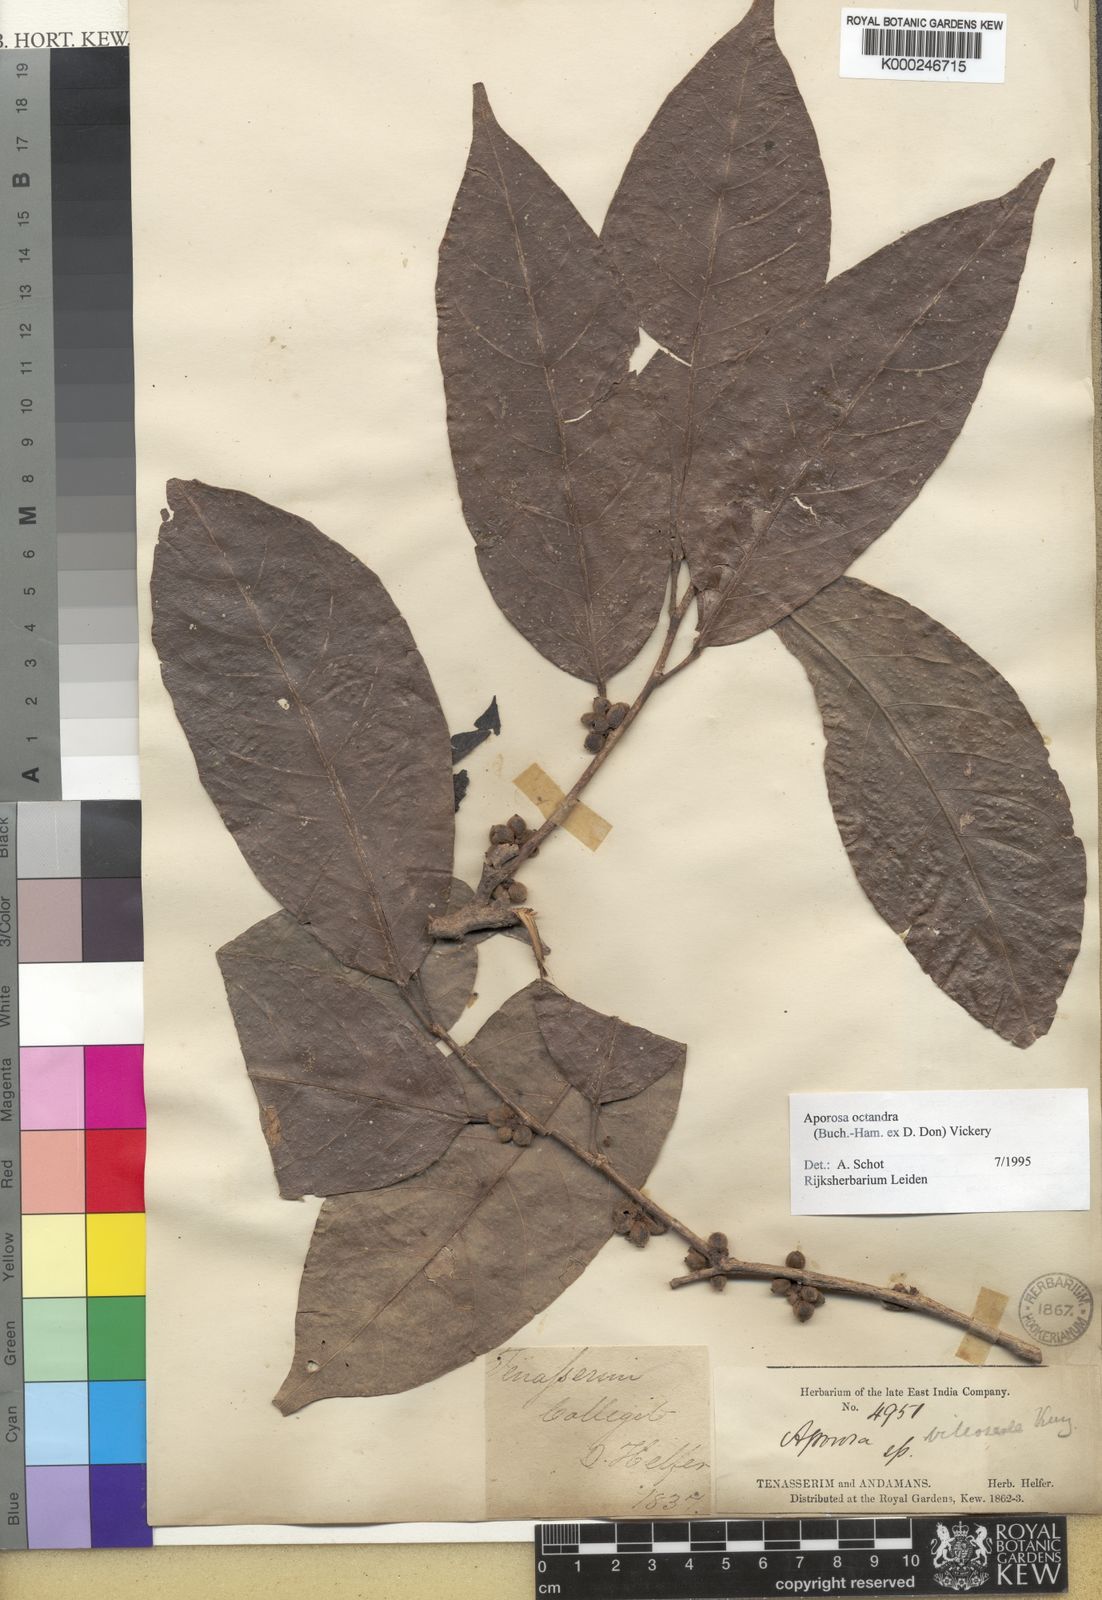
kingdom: Plantae
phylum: Tracheophyta
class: Magnoliopsida
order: Malpighiales
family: Phyllanthaceae
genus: Aporosa
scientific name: Aporosa octandra
